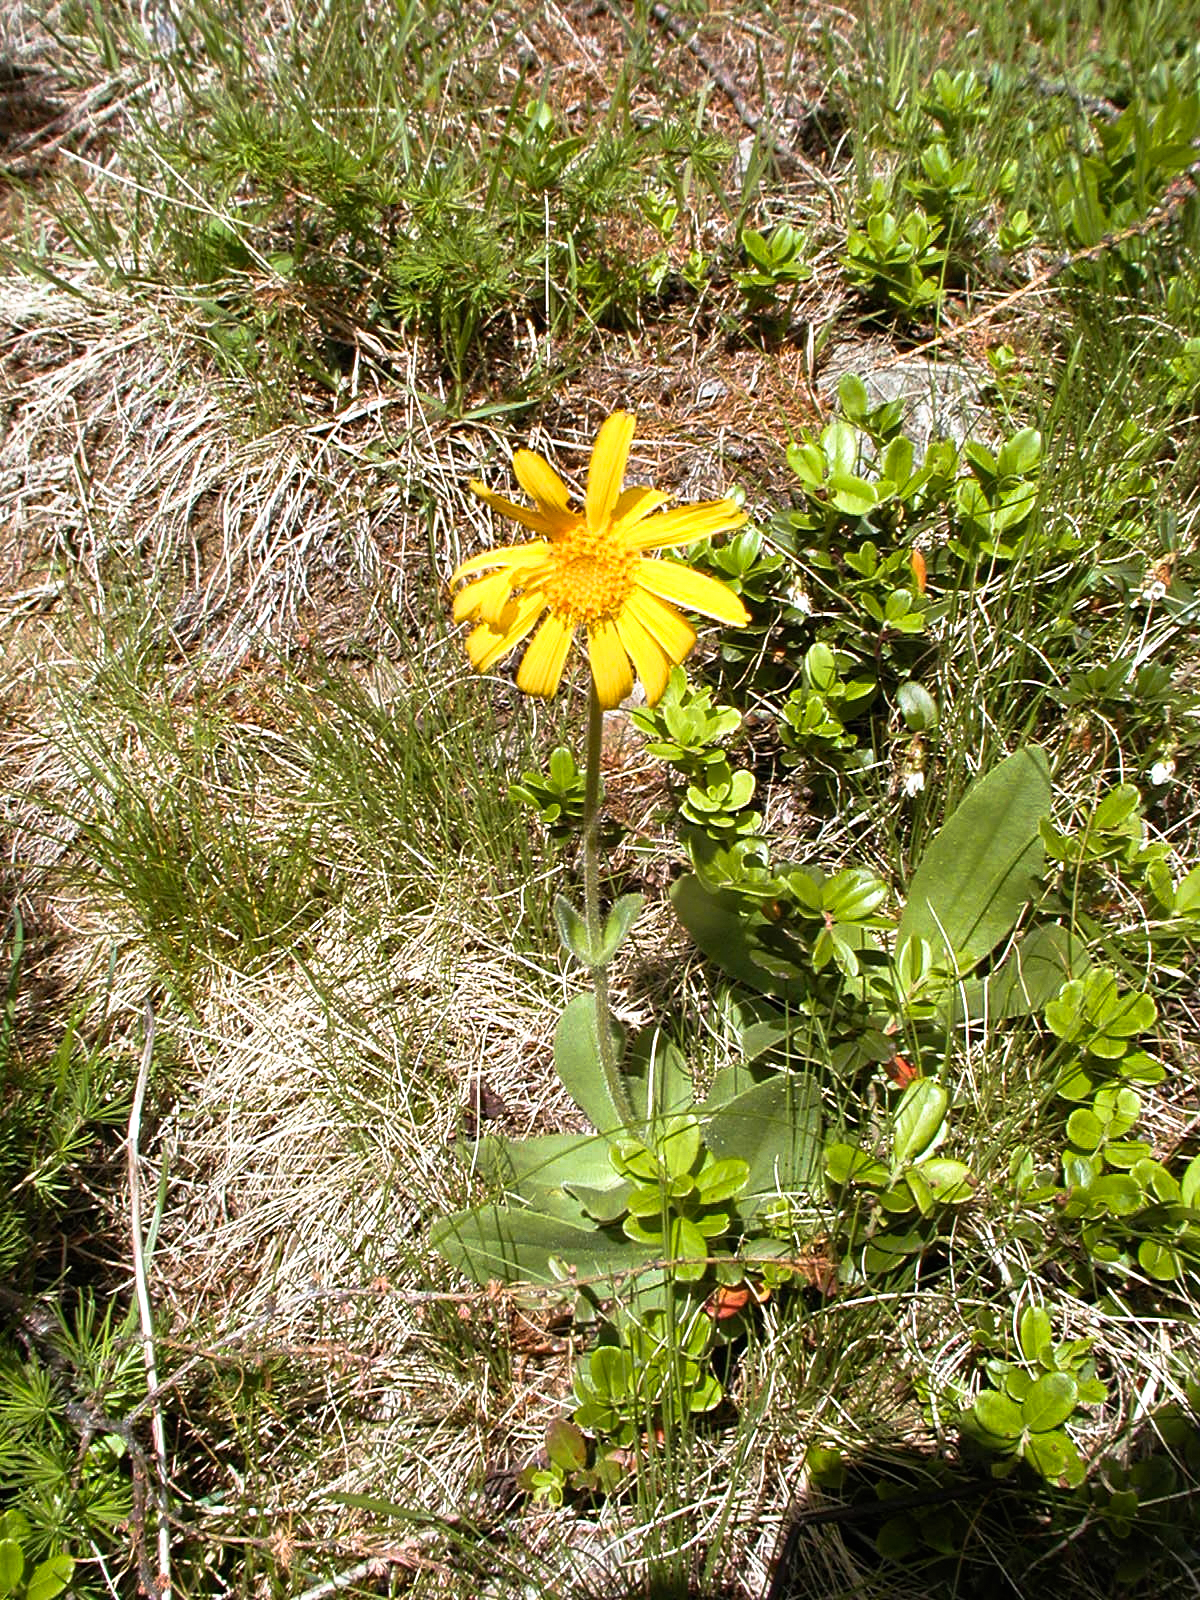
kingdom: Plantae
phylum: Tracheophyta
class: Magnoliopsida
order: Asterales
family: Asteraceae
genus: Arnica
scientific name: Arnica montana
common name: Leopard's bane
